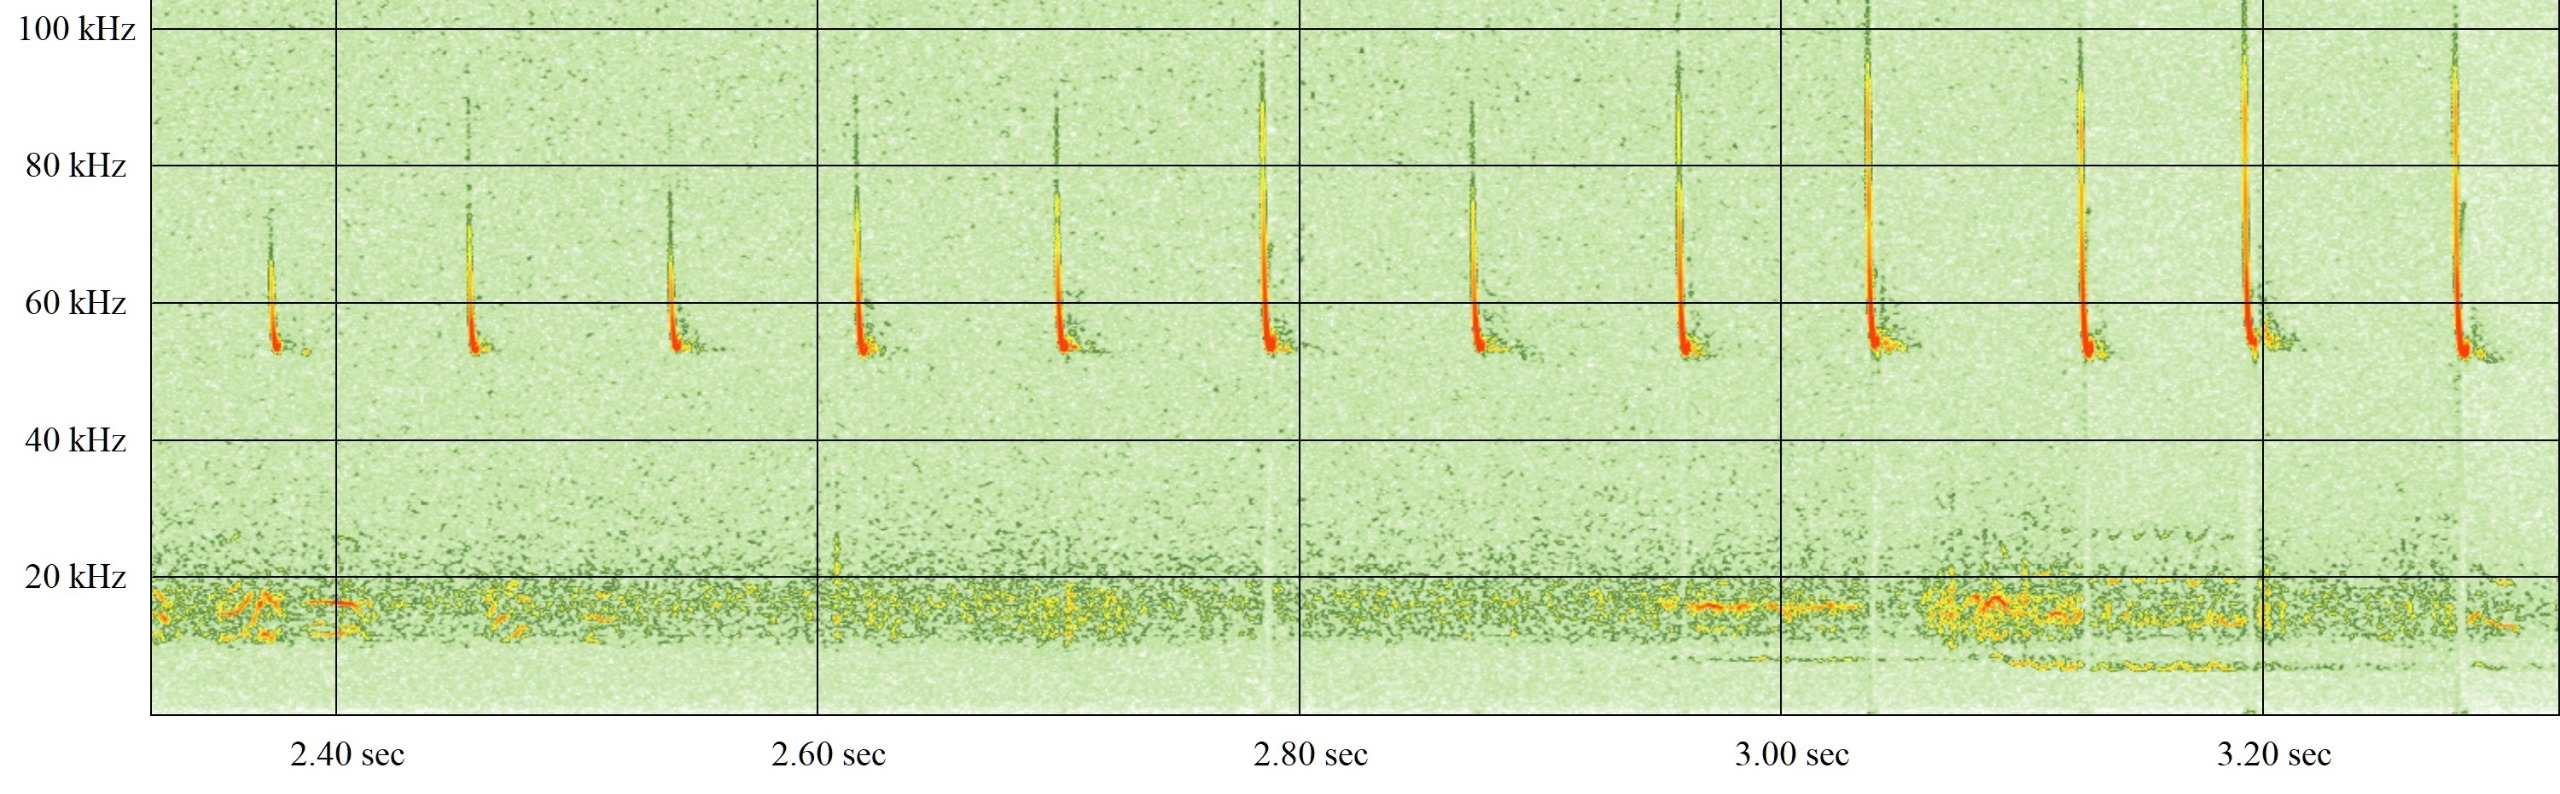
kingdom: Animalia
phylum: Chordata
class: Mammalia
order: Chiroptera
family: Vespertilionidae
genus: Pipistrellus
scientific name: Pipistrellus pygmaeus
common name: Dværgflagermus
